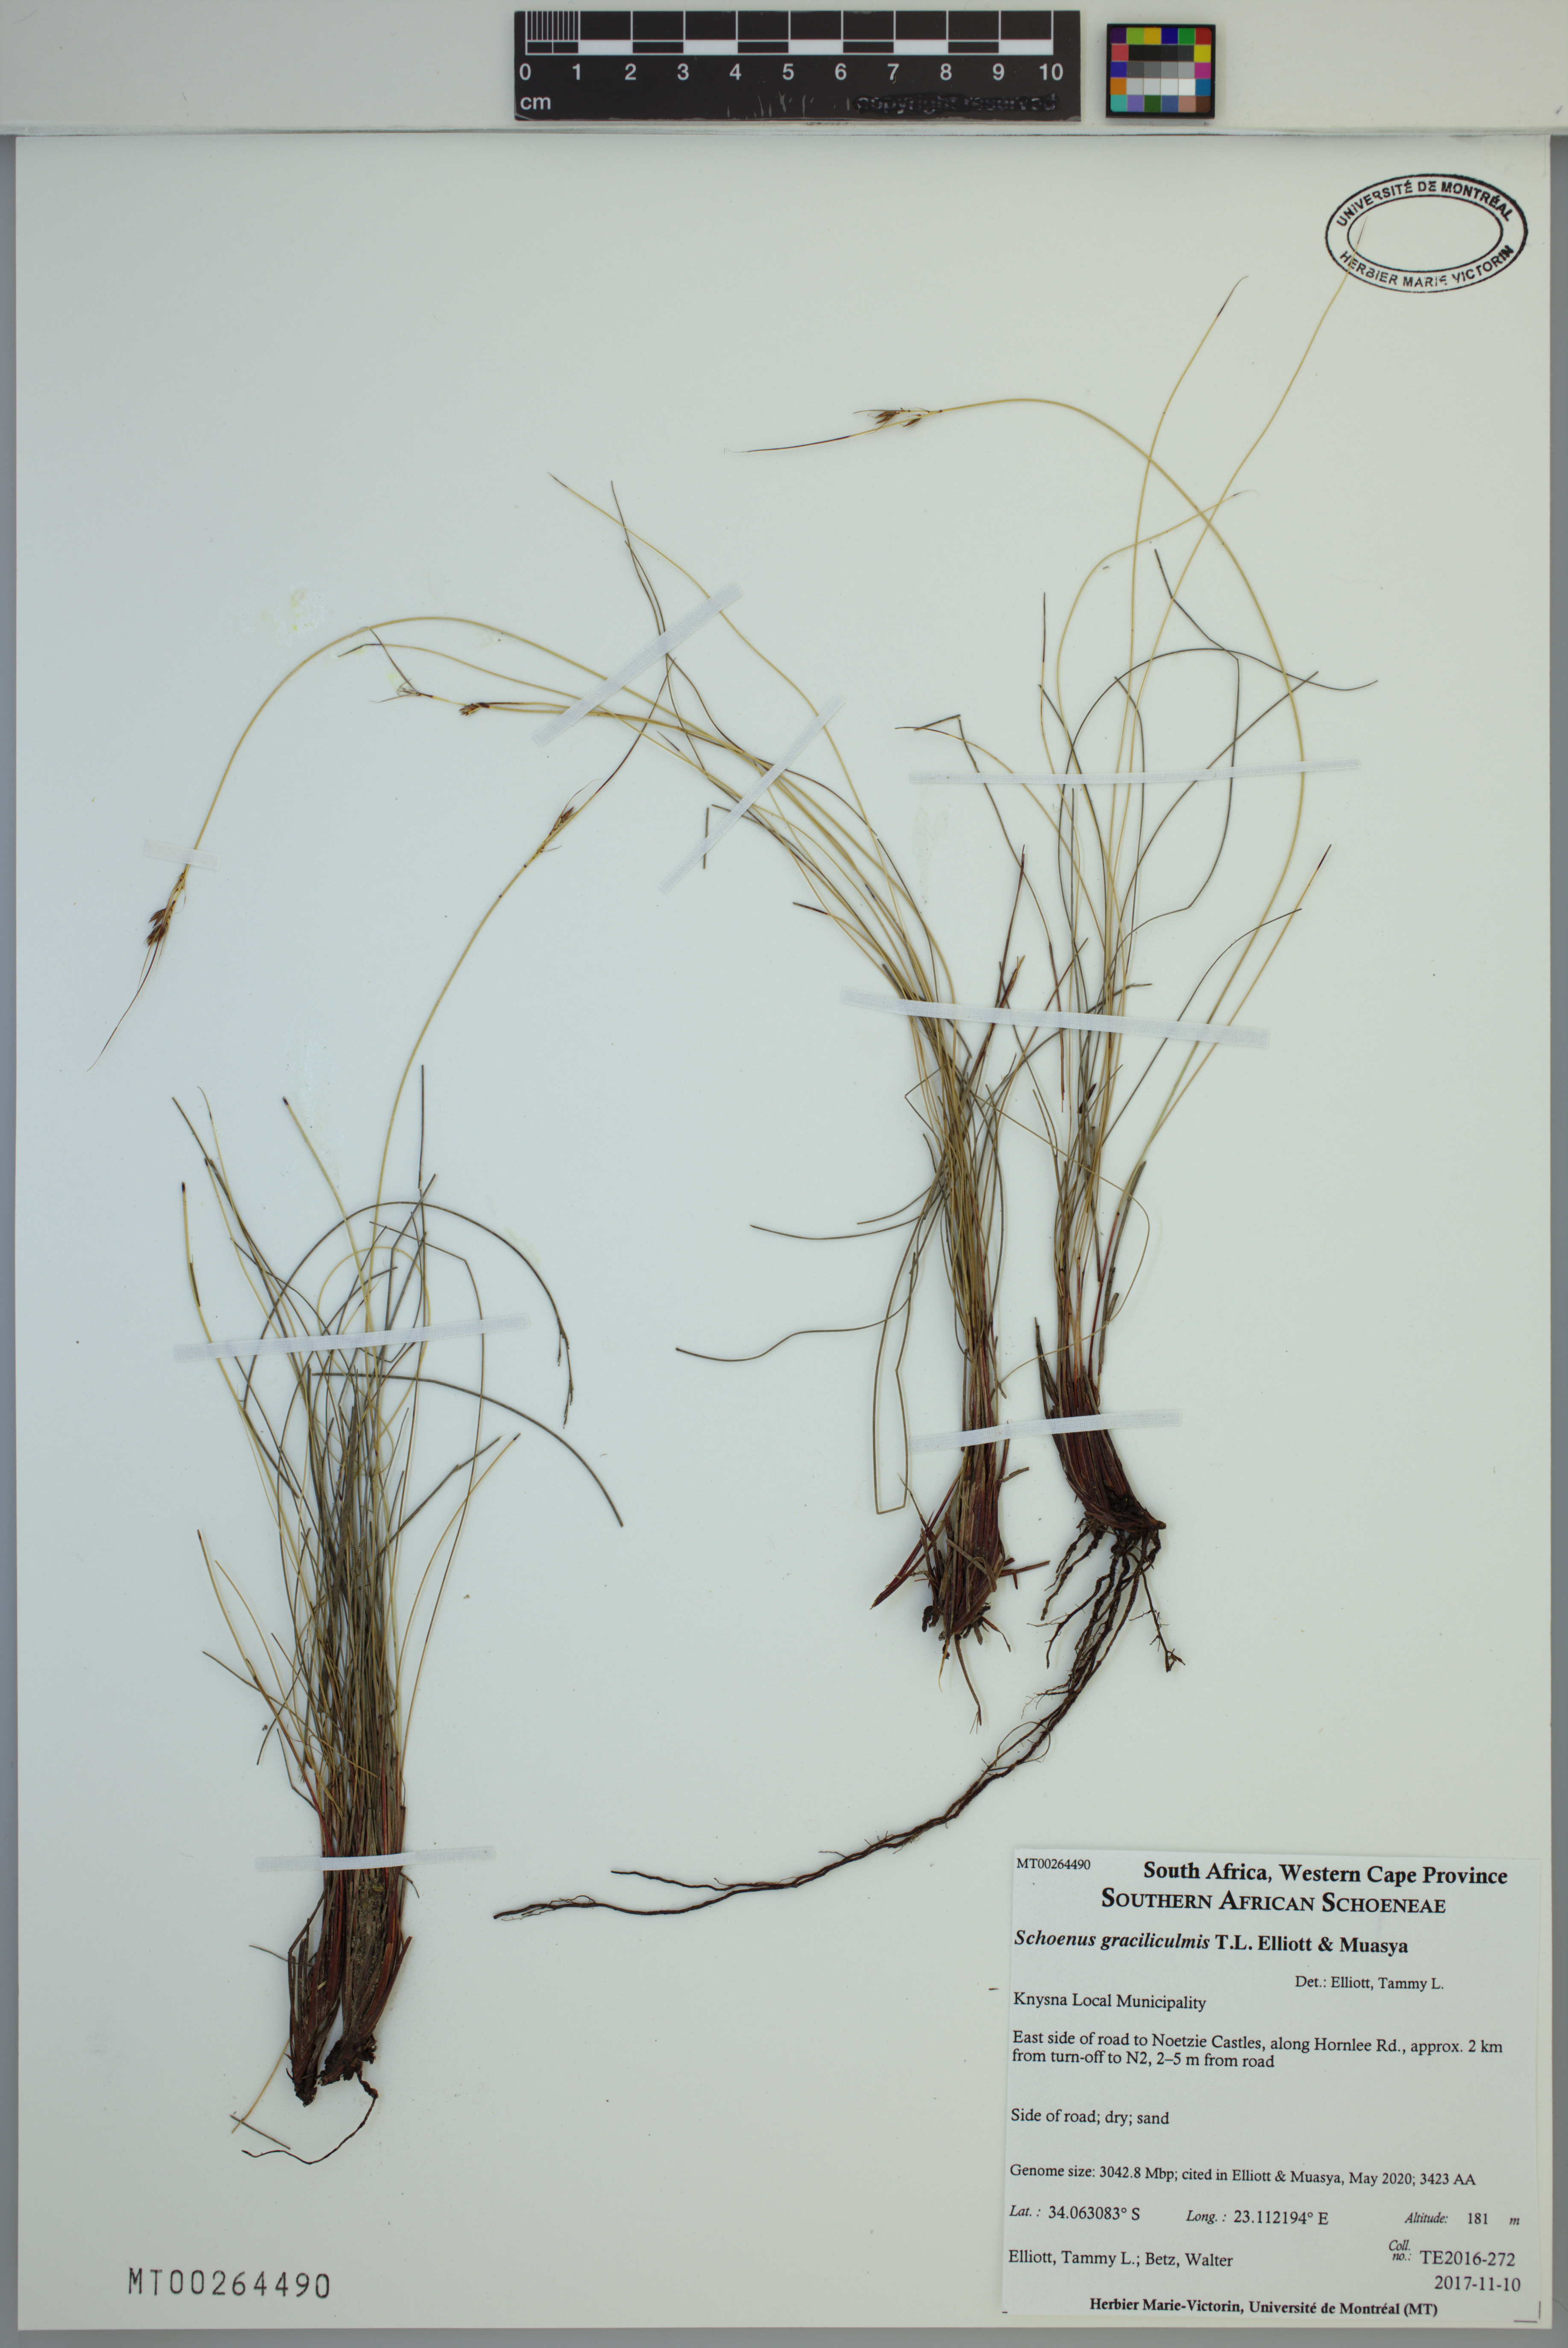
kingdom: Plantae
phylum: Tracheophyta
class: Liliopsida
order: Poales
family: Cyperaceae
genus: Schoenus
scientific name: Schoenus graciliculmis
